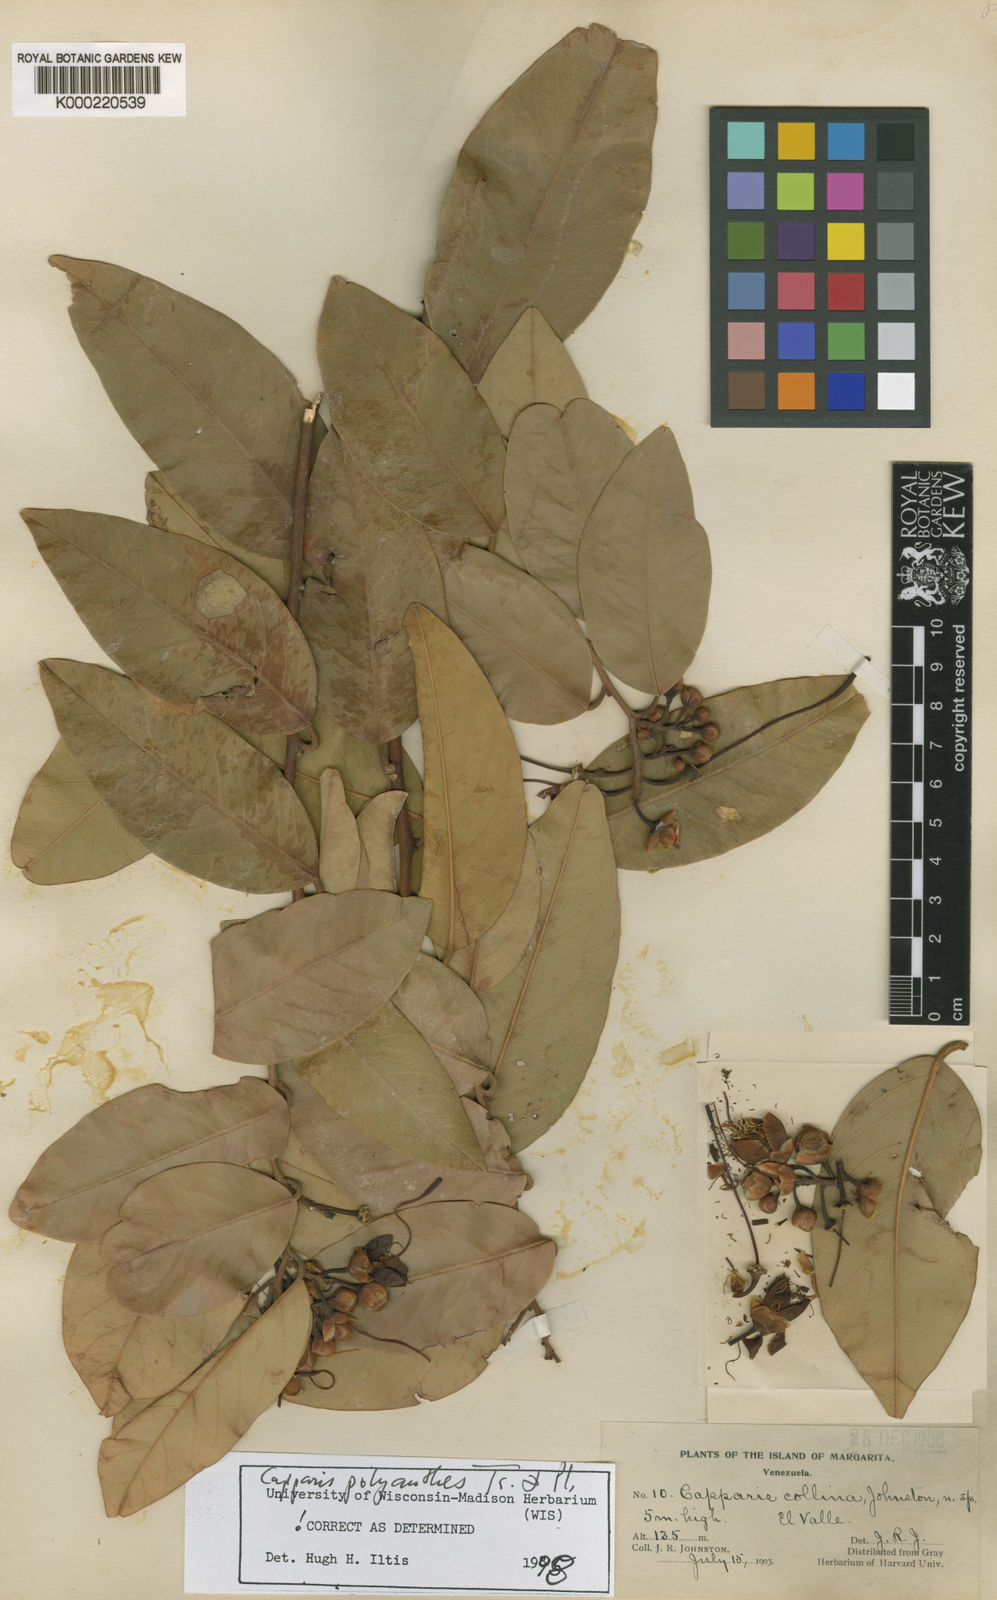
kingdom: Plantae
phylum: Tracheophyta
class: Magnoliopsida
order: Brassicales
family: Capparaceae
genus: Cynophalla
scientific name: Cynophalla flexuosa
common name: Capertree
